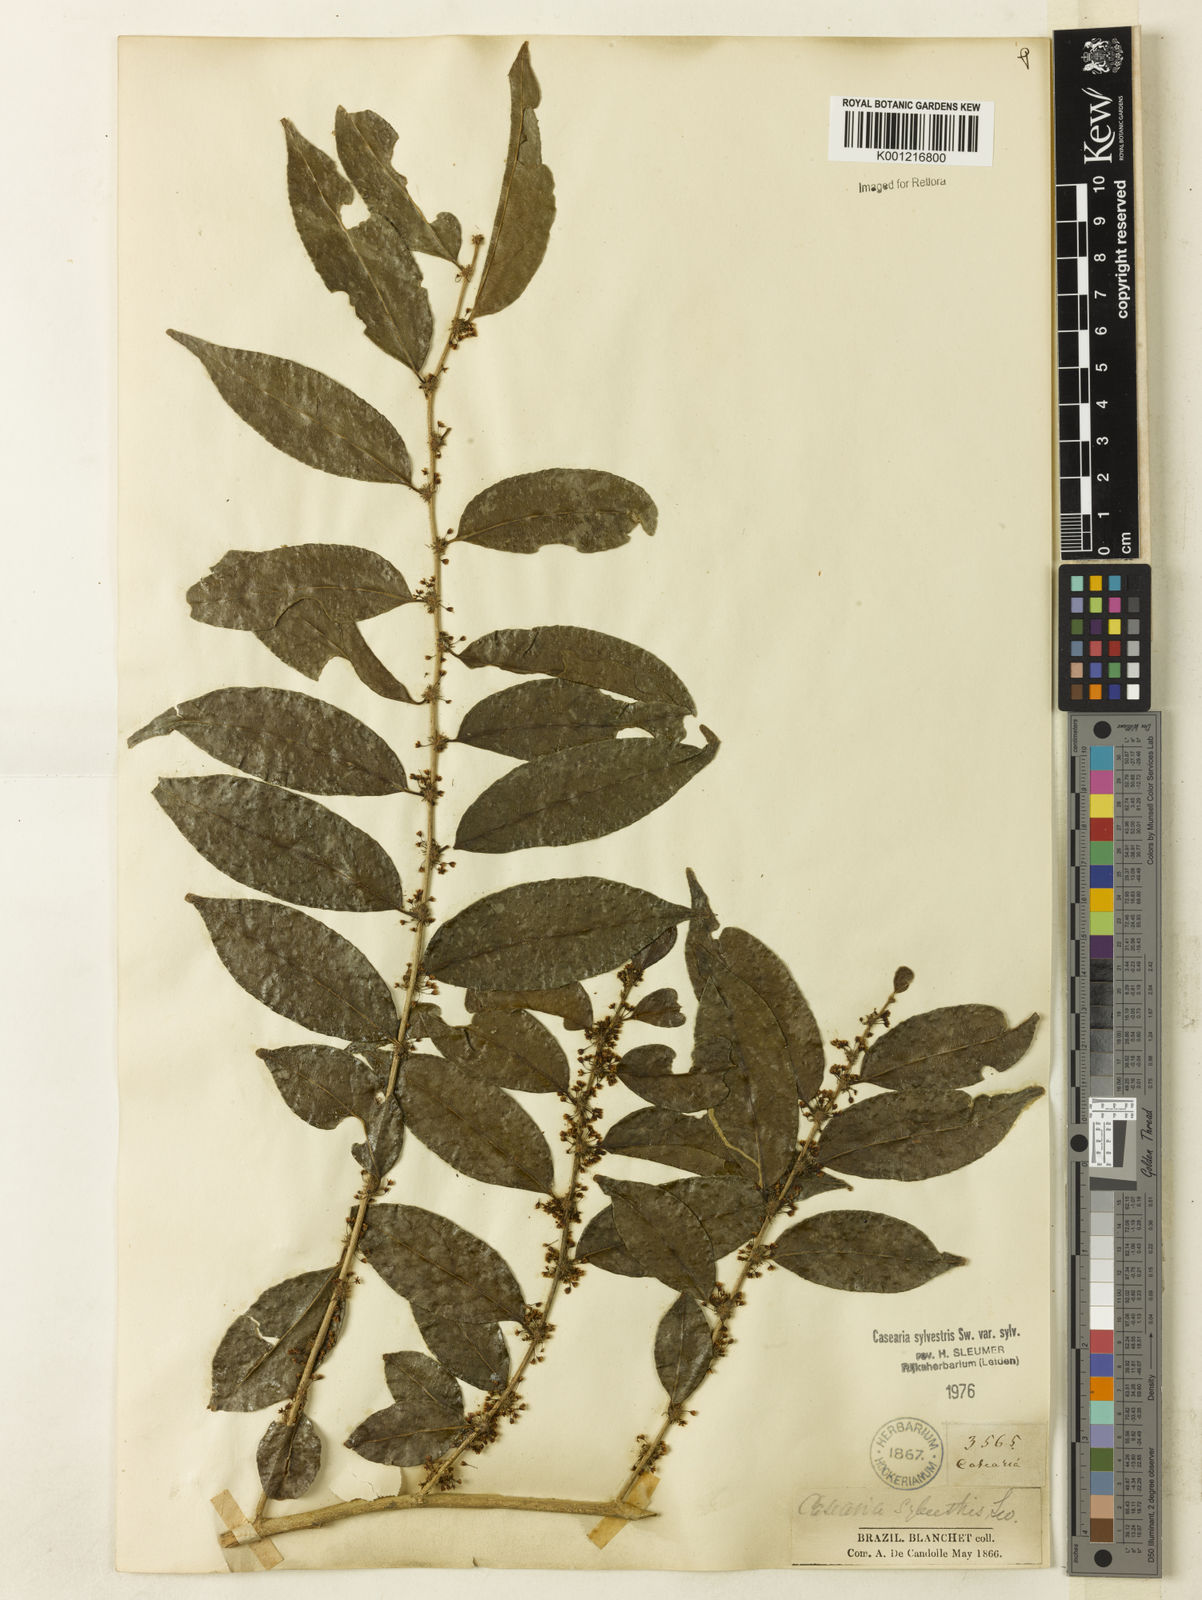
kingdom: Plantae
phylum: Tracheophyta
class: Magnoliopsida
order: Malpighiales
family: Salicaceae
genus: Casearia
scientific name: Casearia sylvestris
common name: Wild sage
